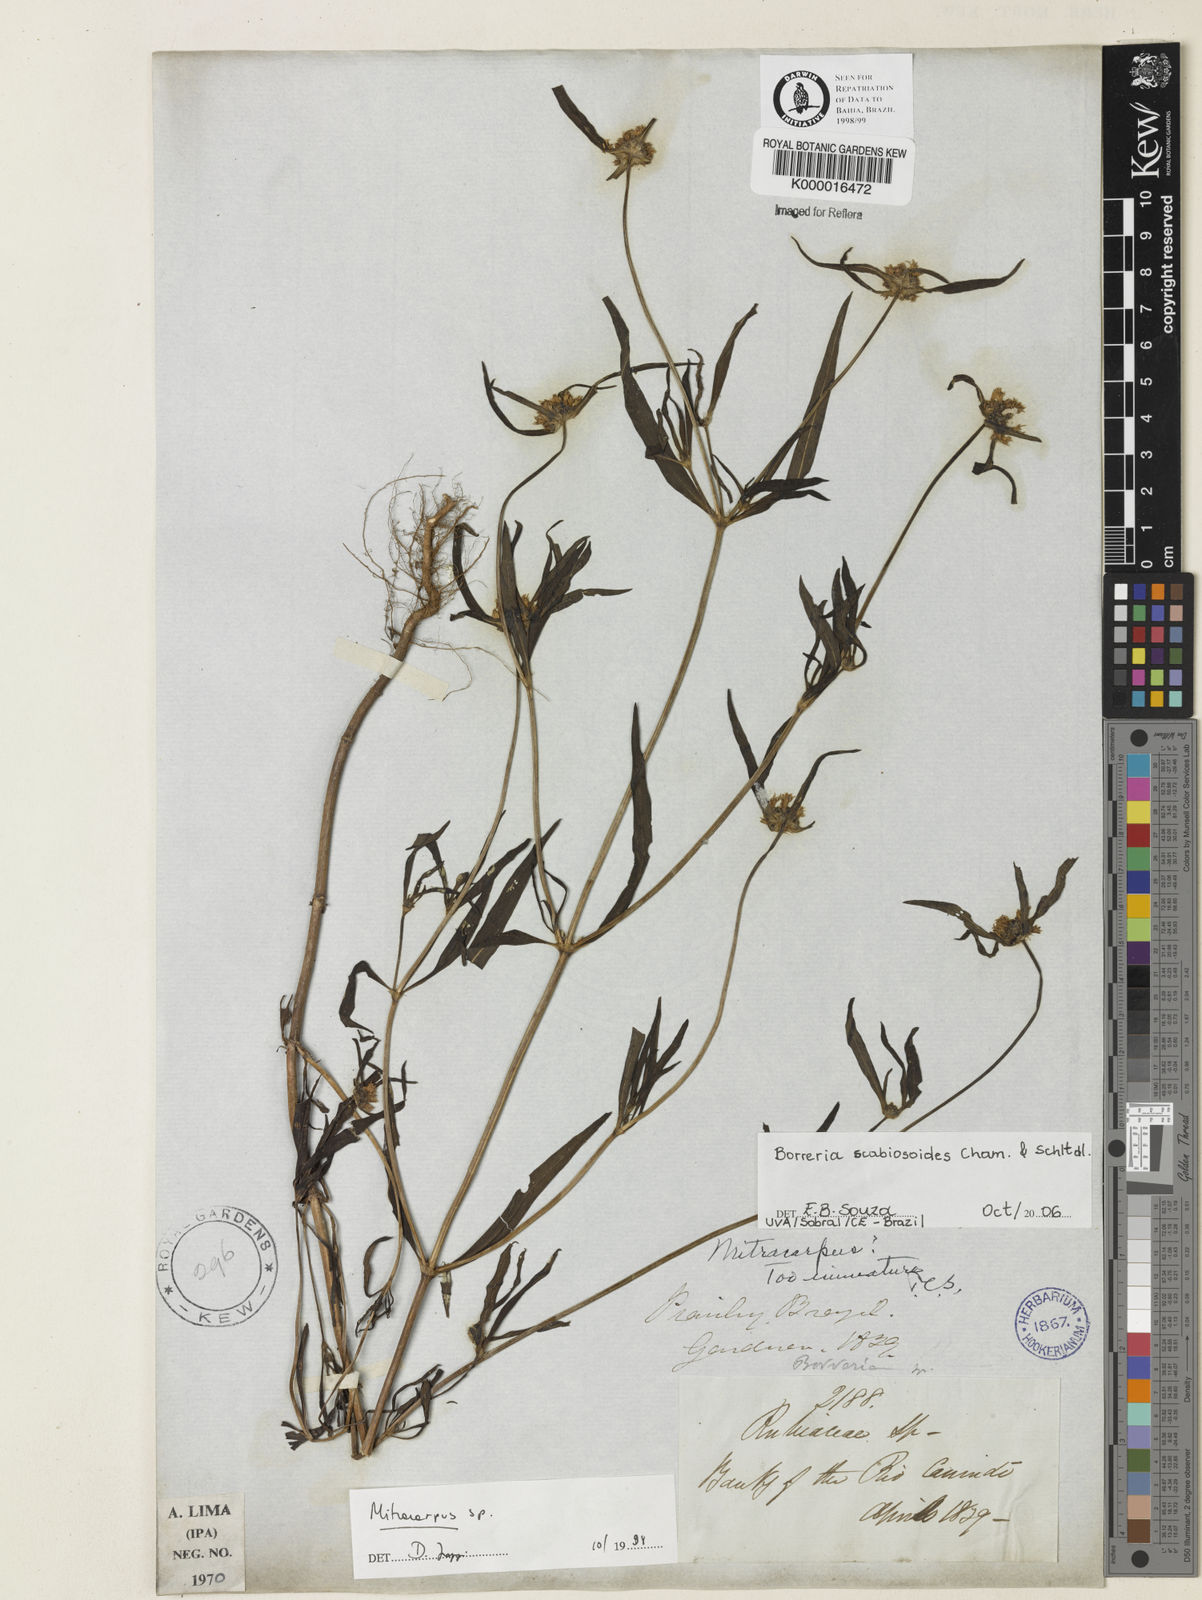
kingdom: Plantae
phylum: Tracheophyta
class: Magnoliopsida
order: Gentianales
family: Rubiaceae
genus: Mitracarpus
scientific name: Mitracarpus
